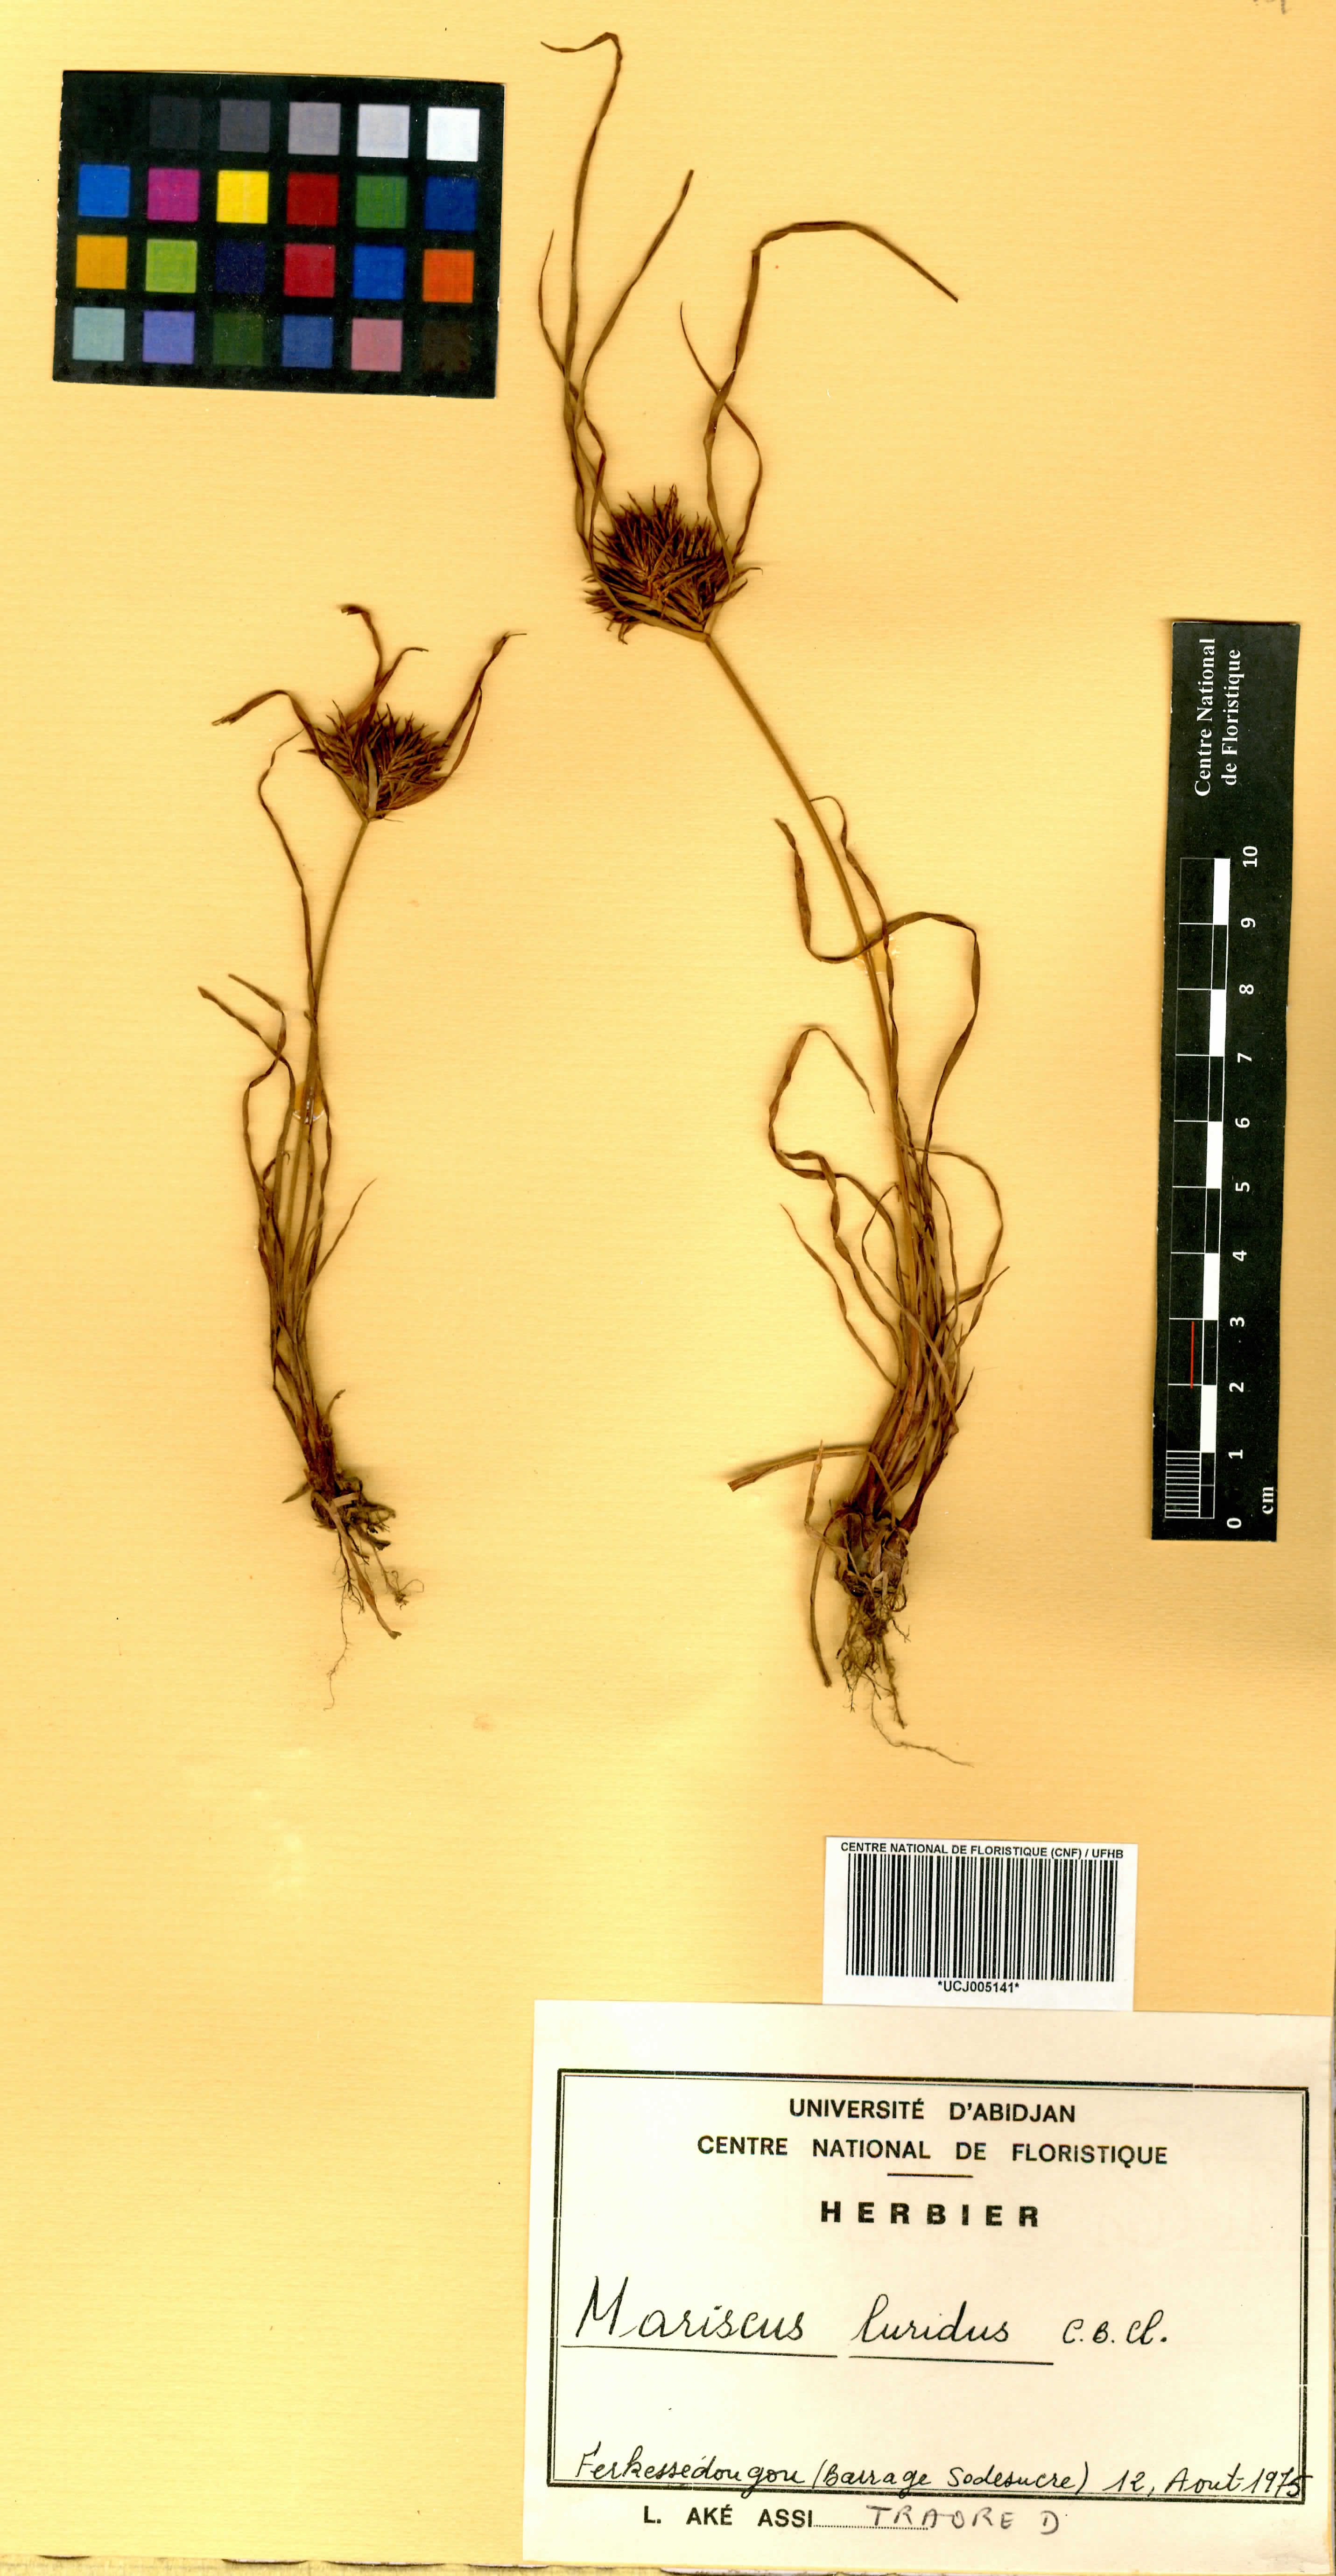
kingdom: Plantae
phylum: Tracheophyta
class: Liliopsida
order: Poales
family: Cyperaceae
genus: Cladium
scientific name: Cladium Mariscus luridus
